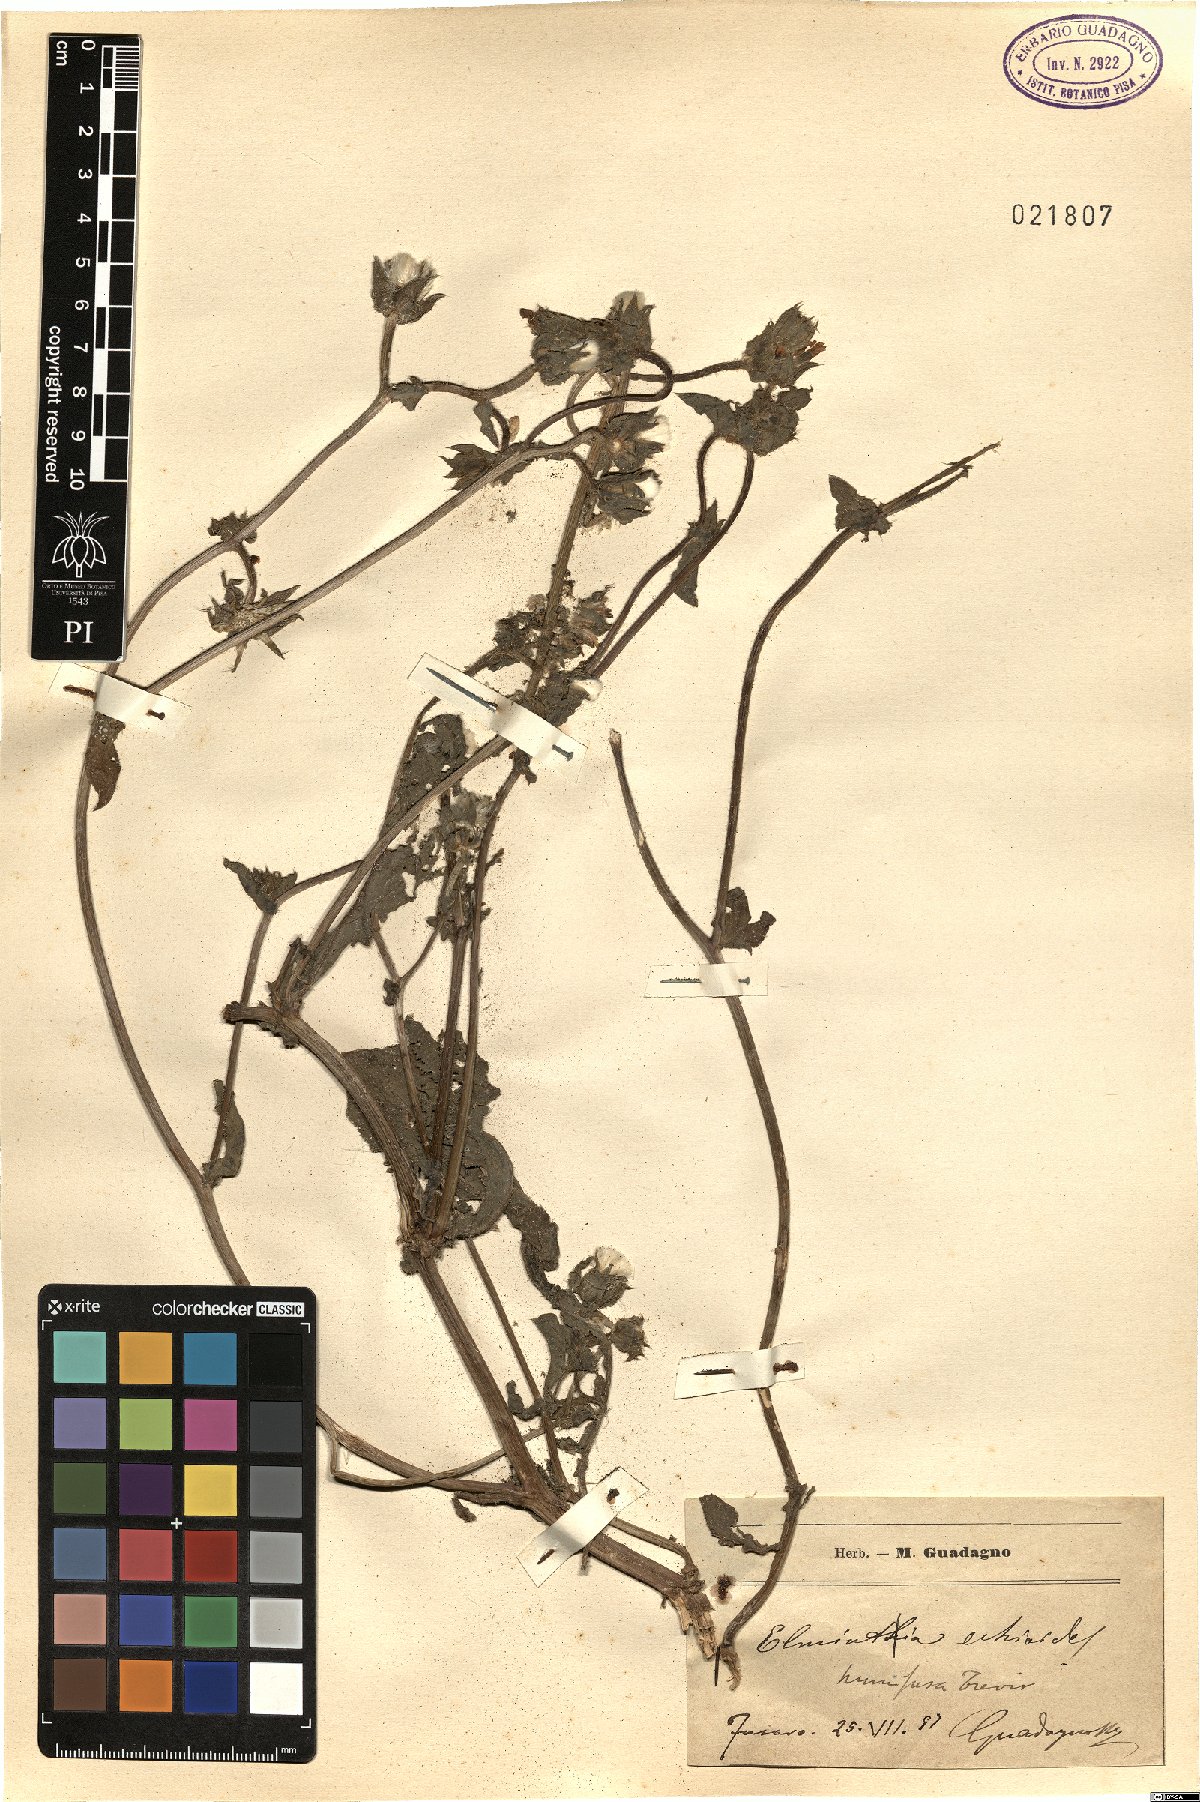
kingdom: Plantae
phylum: Tracheophyta
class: Magnoliopsida
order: Asterales
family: Asteraceae
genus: Helminthotheca
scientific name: Helminthotheca echioides
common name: Ox-tongue
